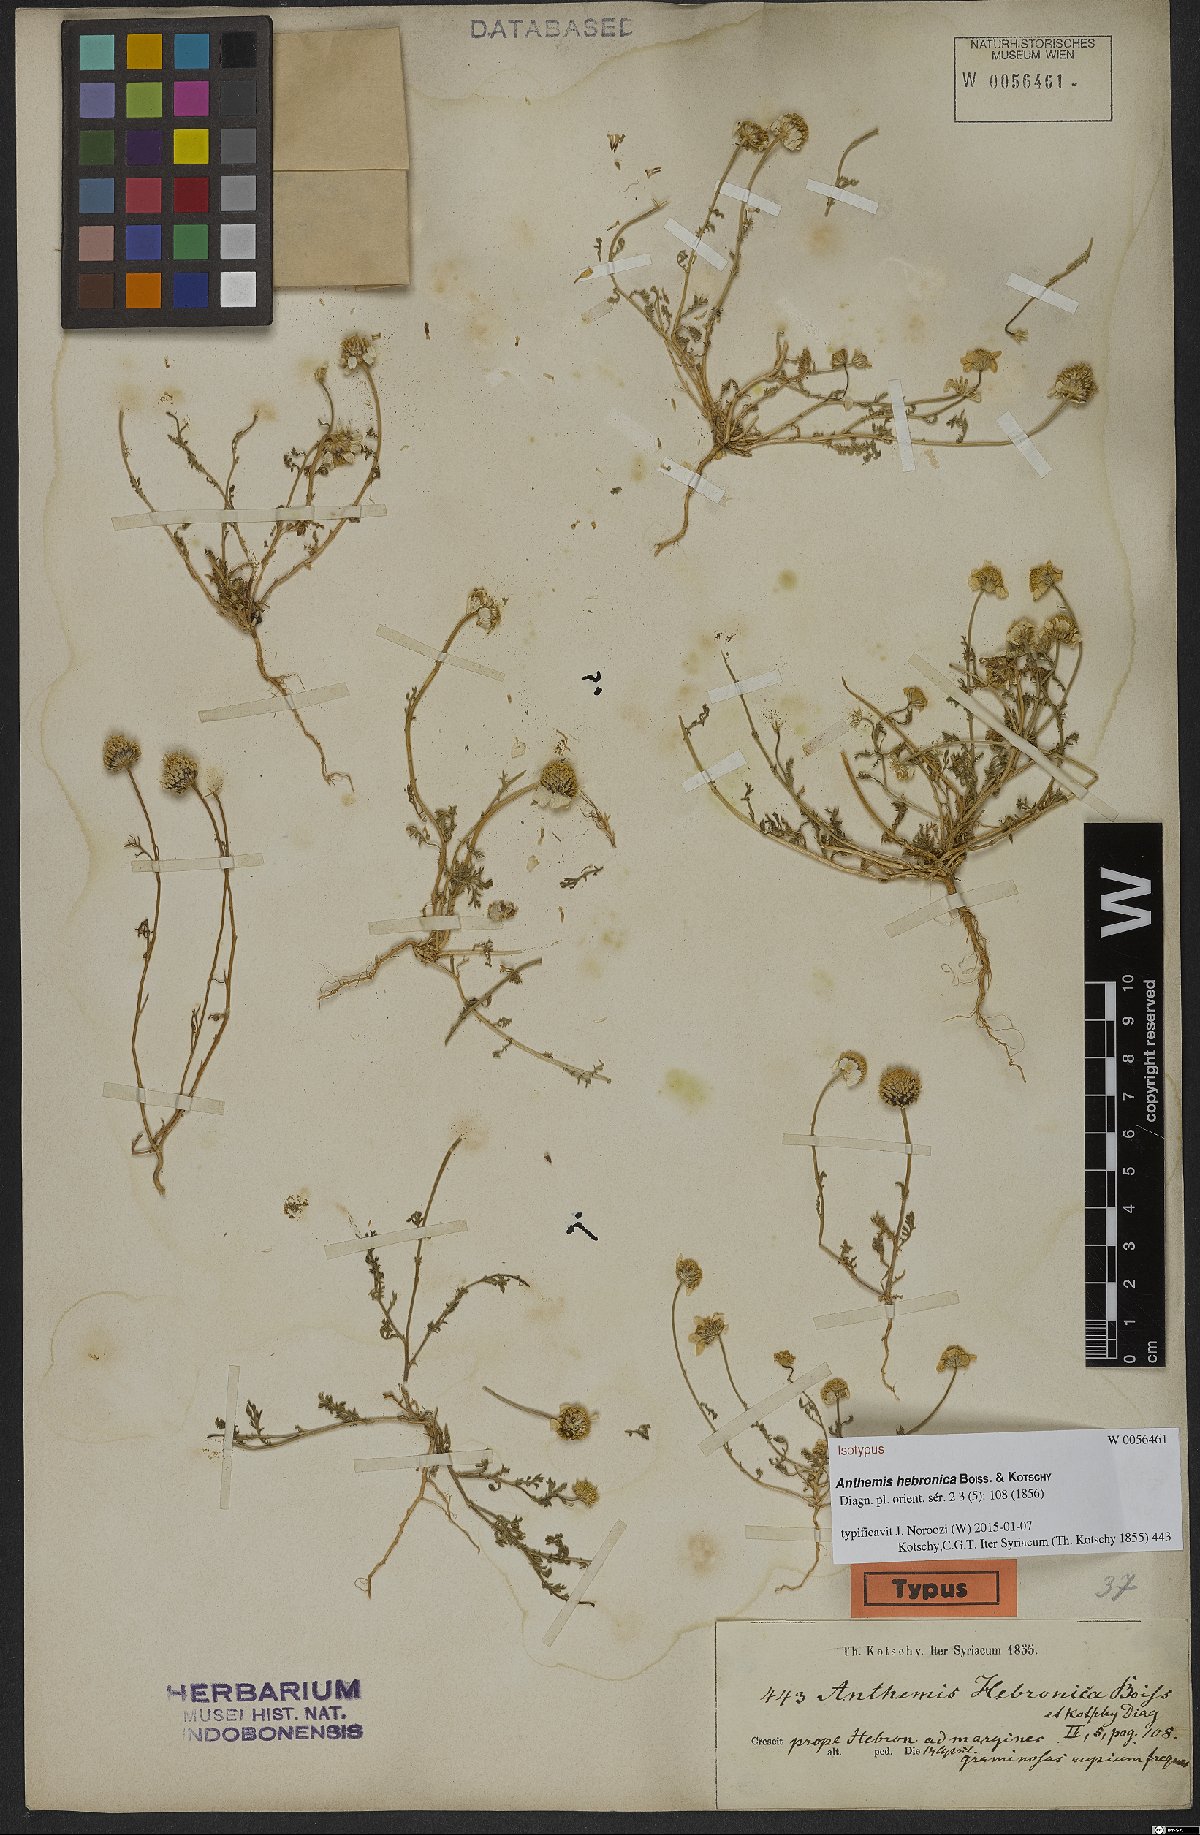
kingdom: Plantae
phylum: Tracheophyta
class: Magnoliopsida
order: Asterales
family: Asteraceae
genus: Anthemis
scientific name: Anthemis hebronica
